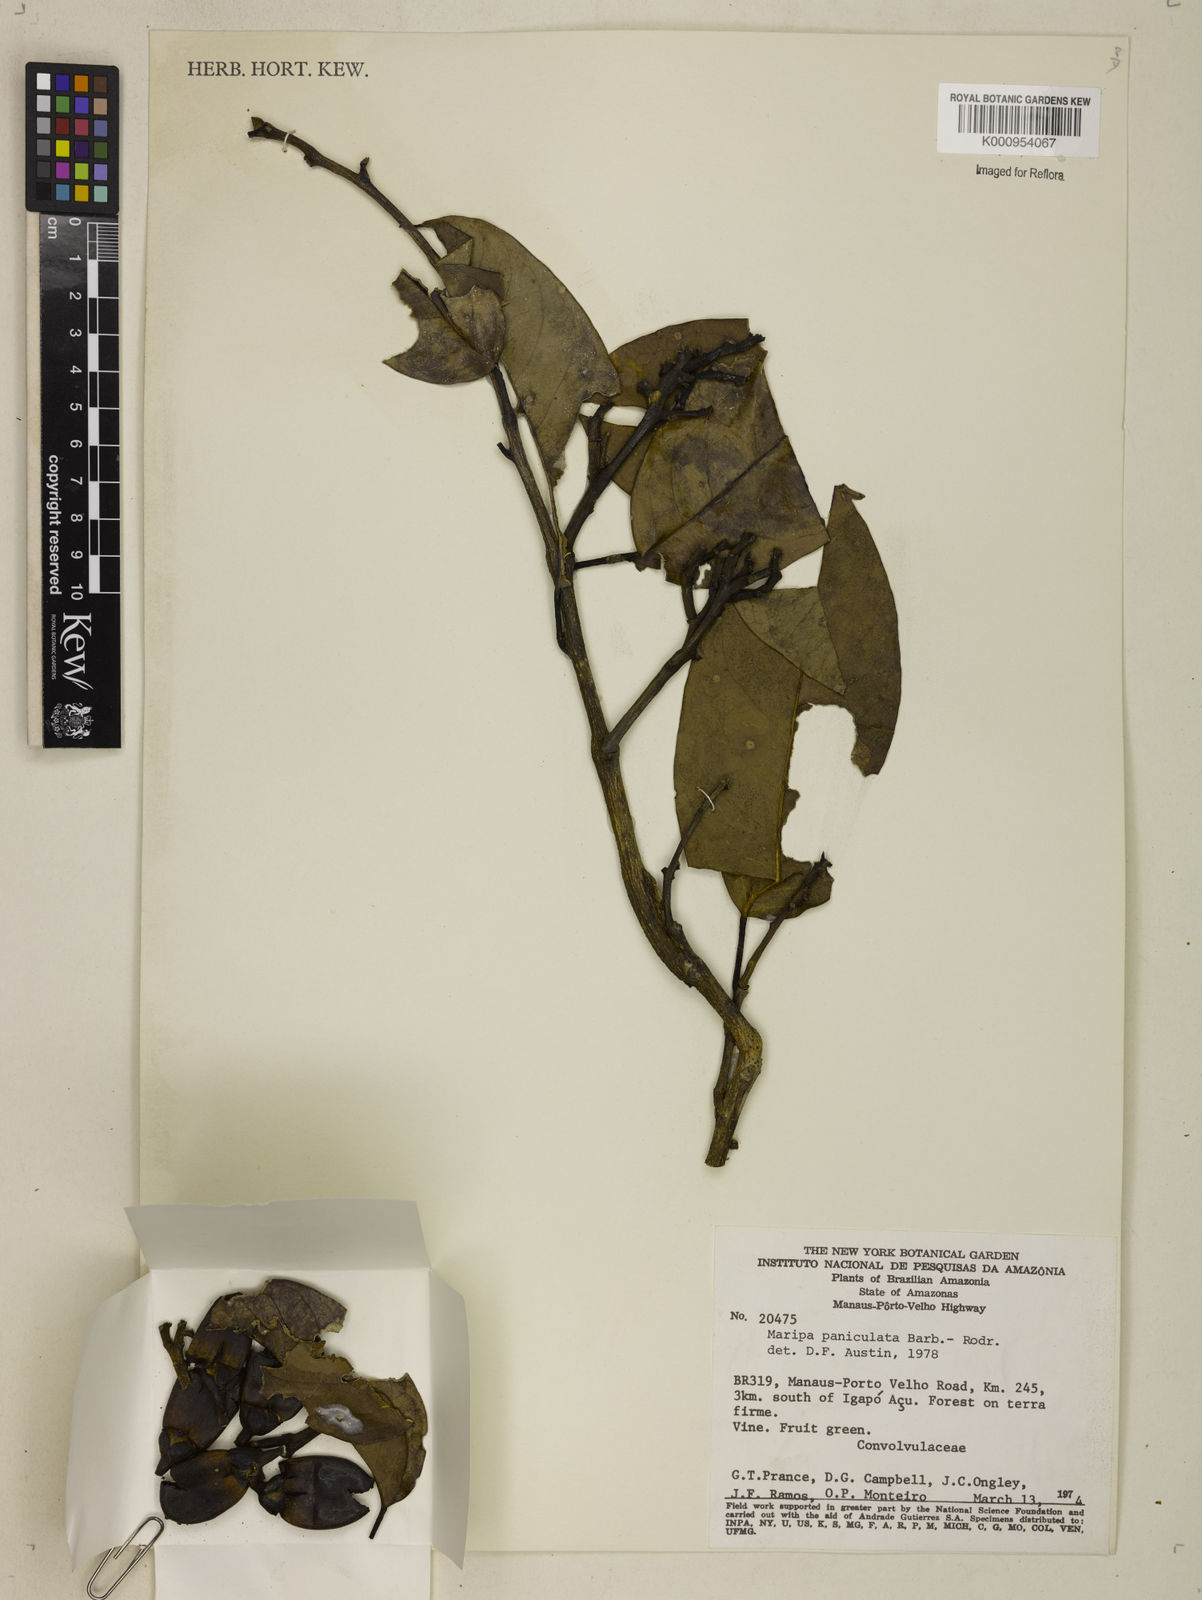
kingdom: Plantae
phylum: Tracheophyta
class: Magnoliopsida
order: Solanales
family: Convolvulaceae
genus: Maripa
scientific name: Maripa paniculata
